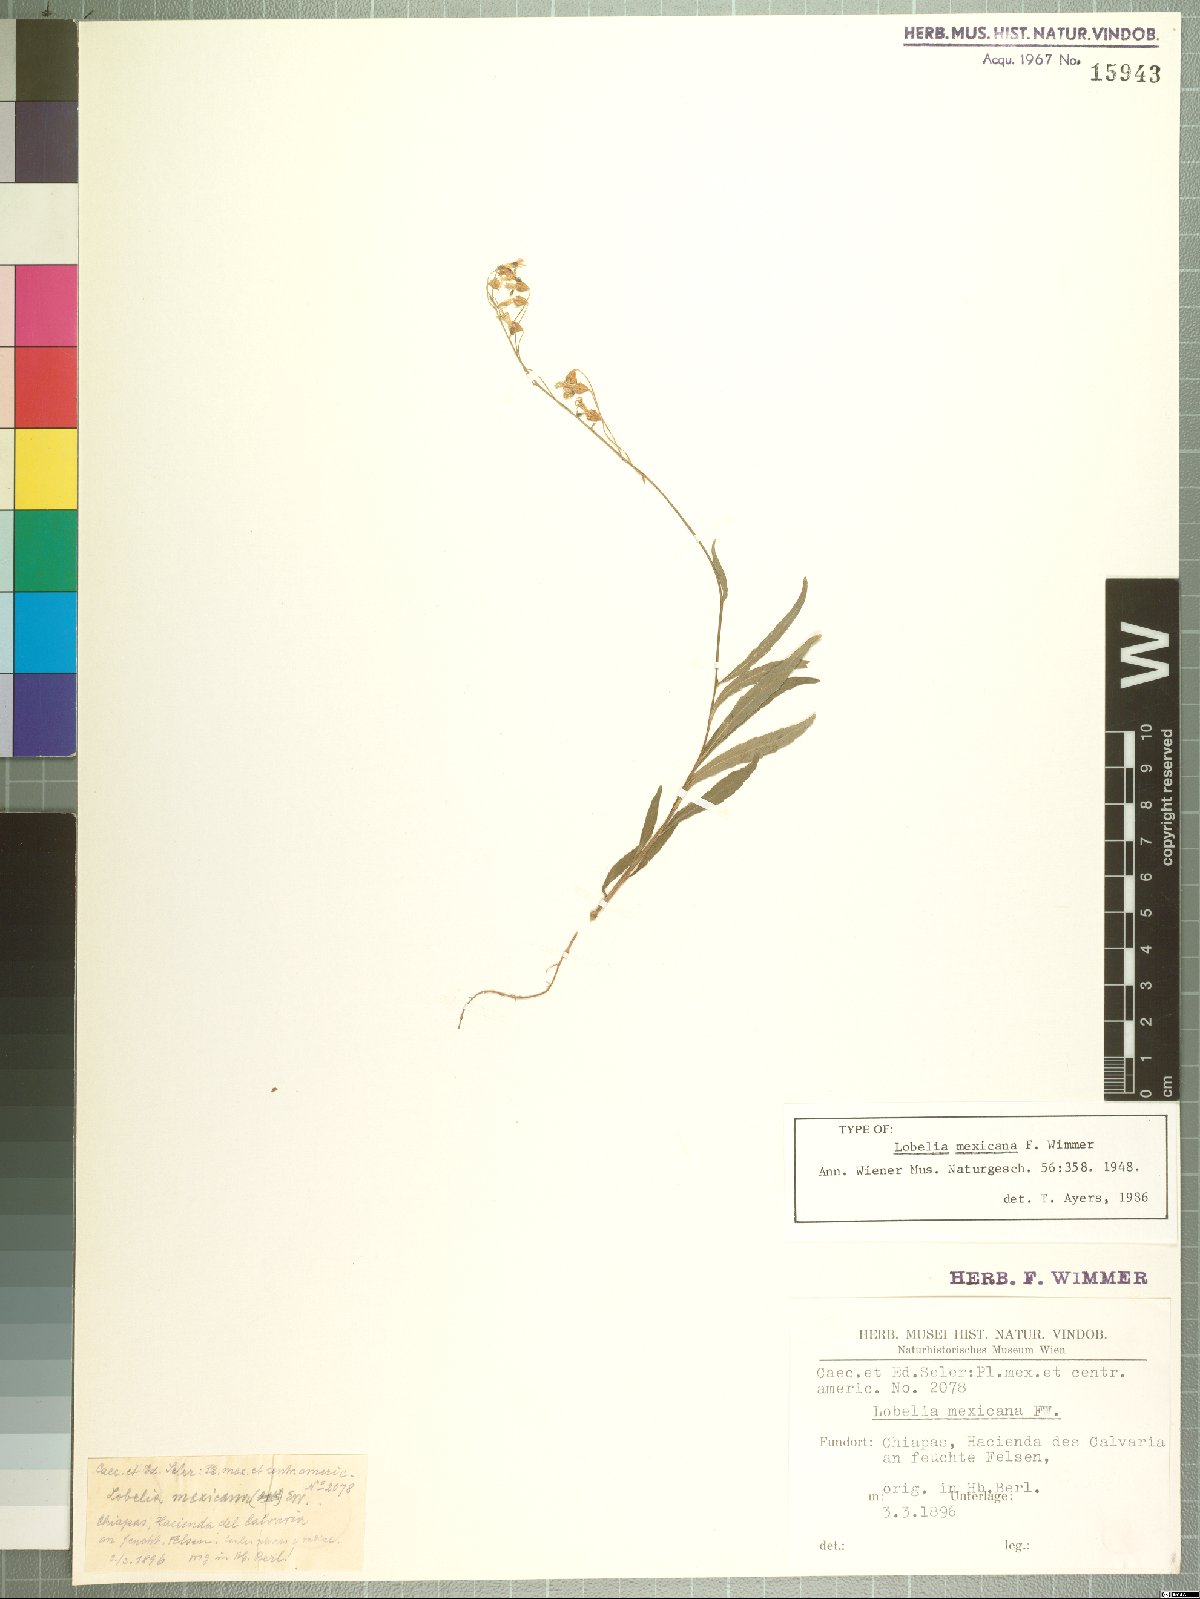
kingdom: Plantae
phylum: Tracheophyta
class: Magnoliopsida
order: Asterales
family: Campanulaceae
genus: Lobelia
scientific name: Lobelia mexicana
